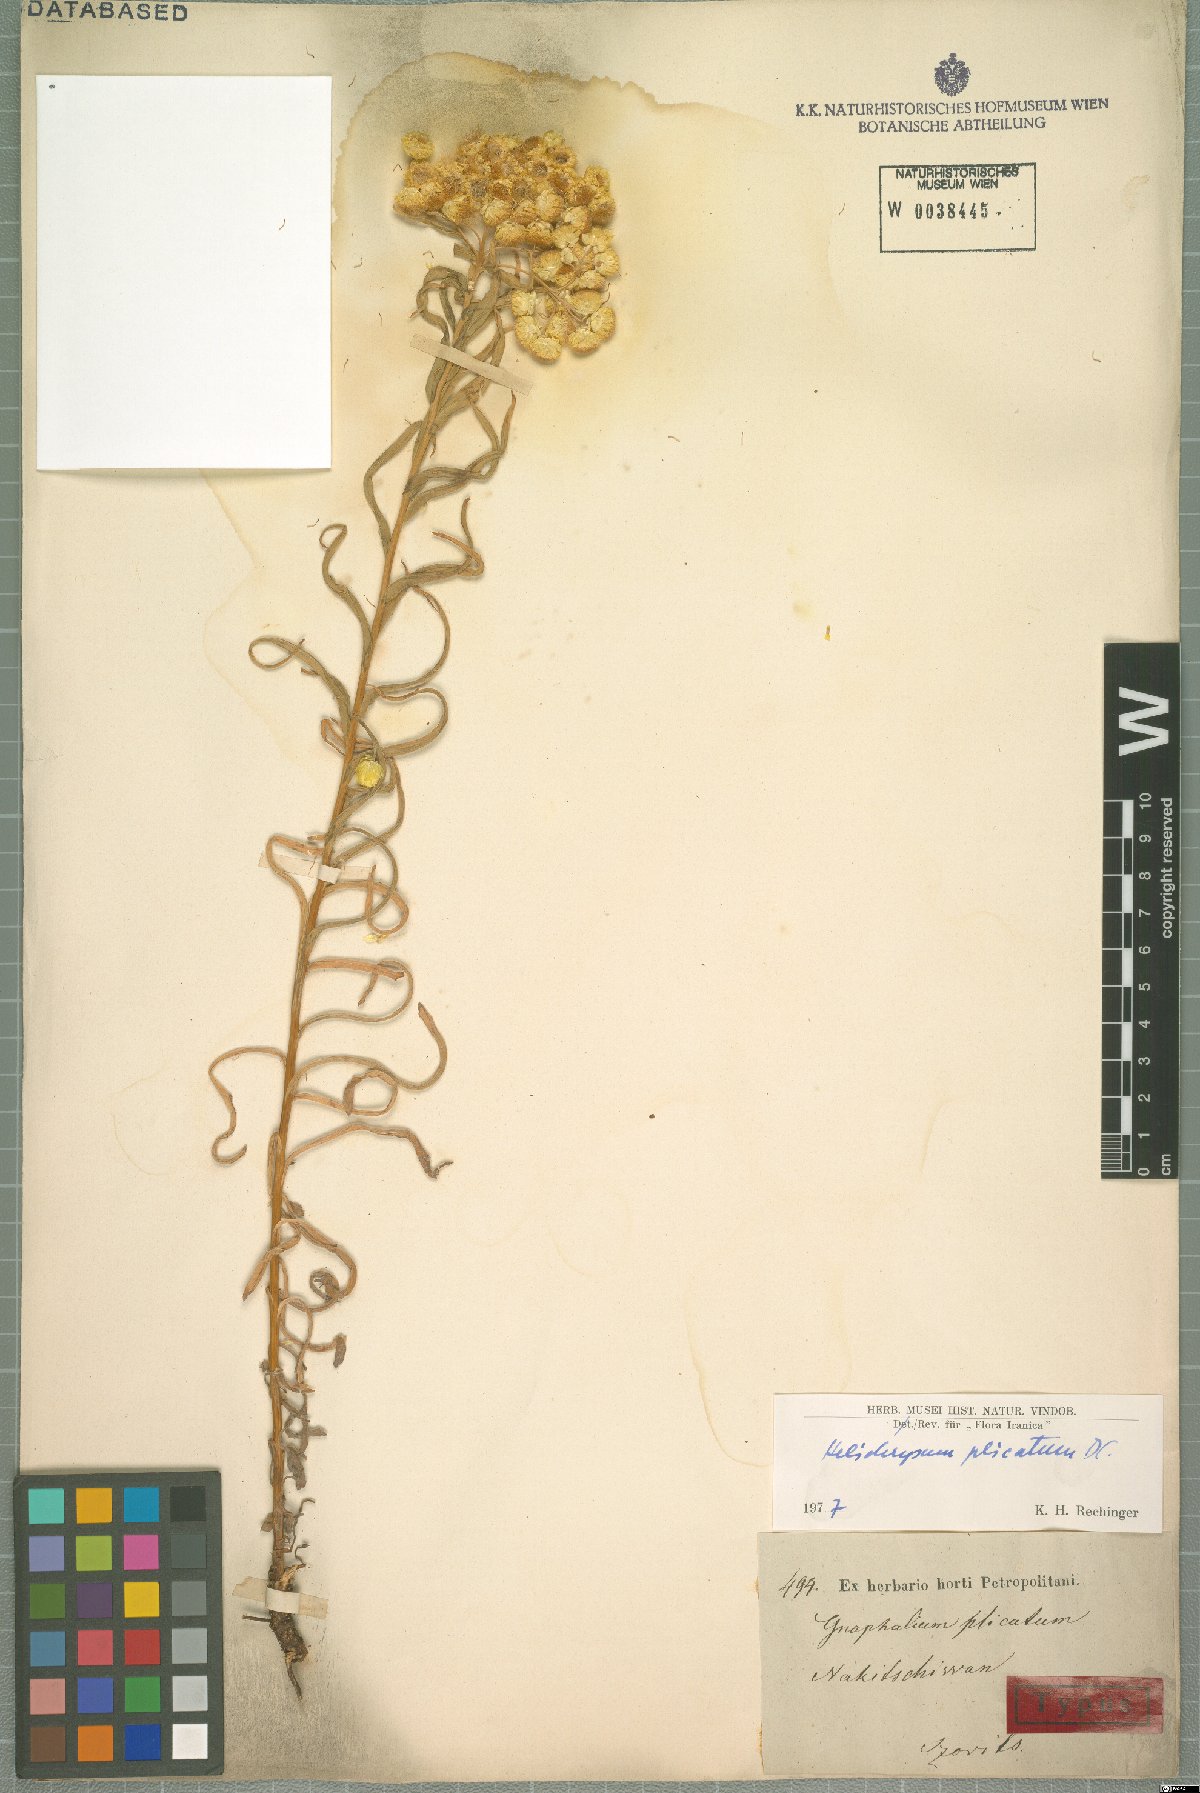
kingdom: Plantae
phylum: Tracheophyta
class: Magnoliopsida
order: Asterales
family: Asteraceae
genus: Helichrysum
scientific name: Helichrysum plicatum
